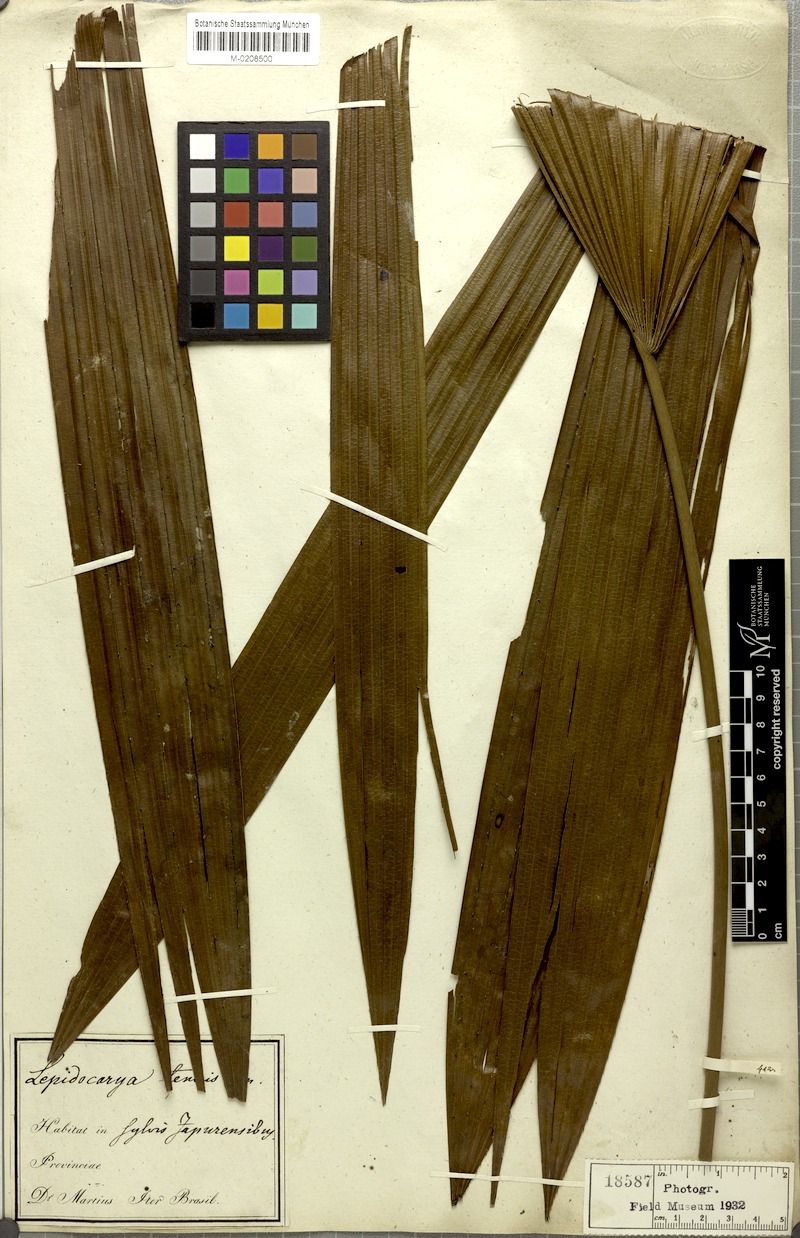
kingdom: Plantae
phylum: Tracheophyta
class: Liliopsida
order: Arecales
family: Arecaceae
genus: Lepidocaryum
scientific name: Lepidocaryum tenue
